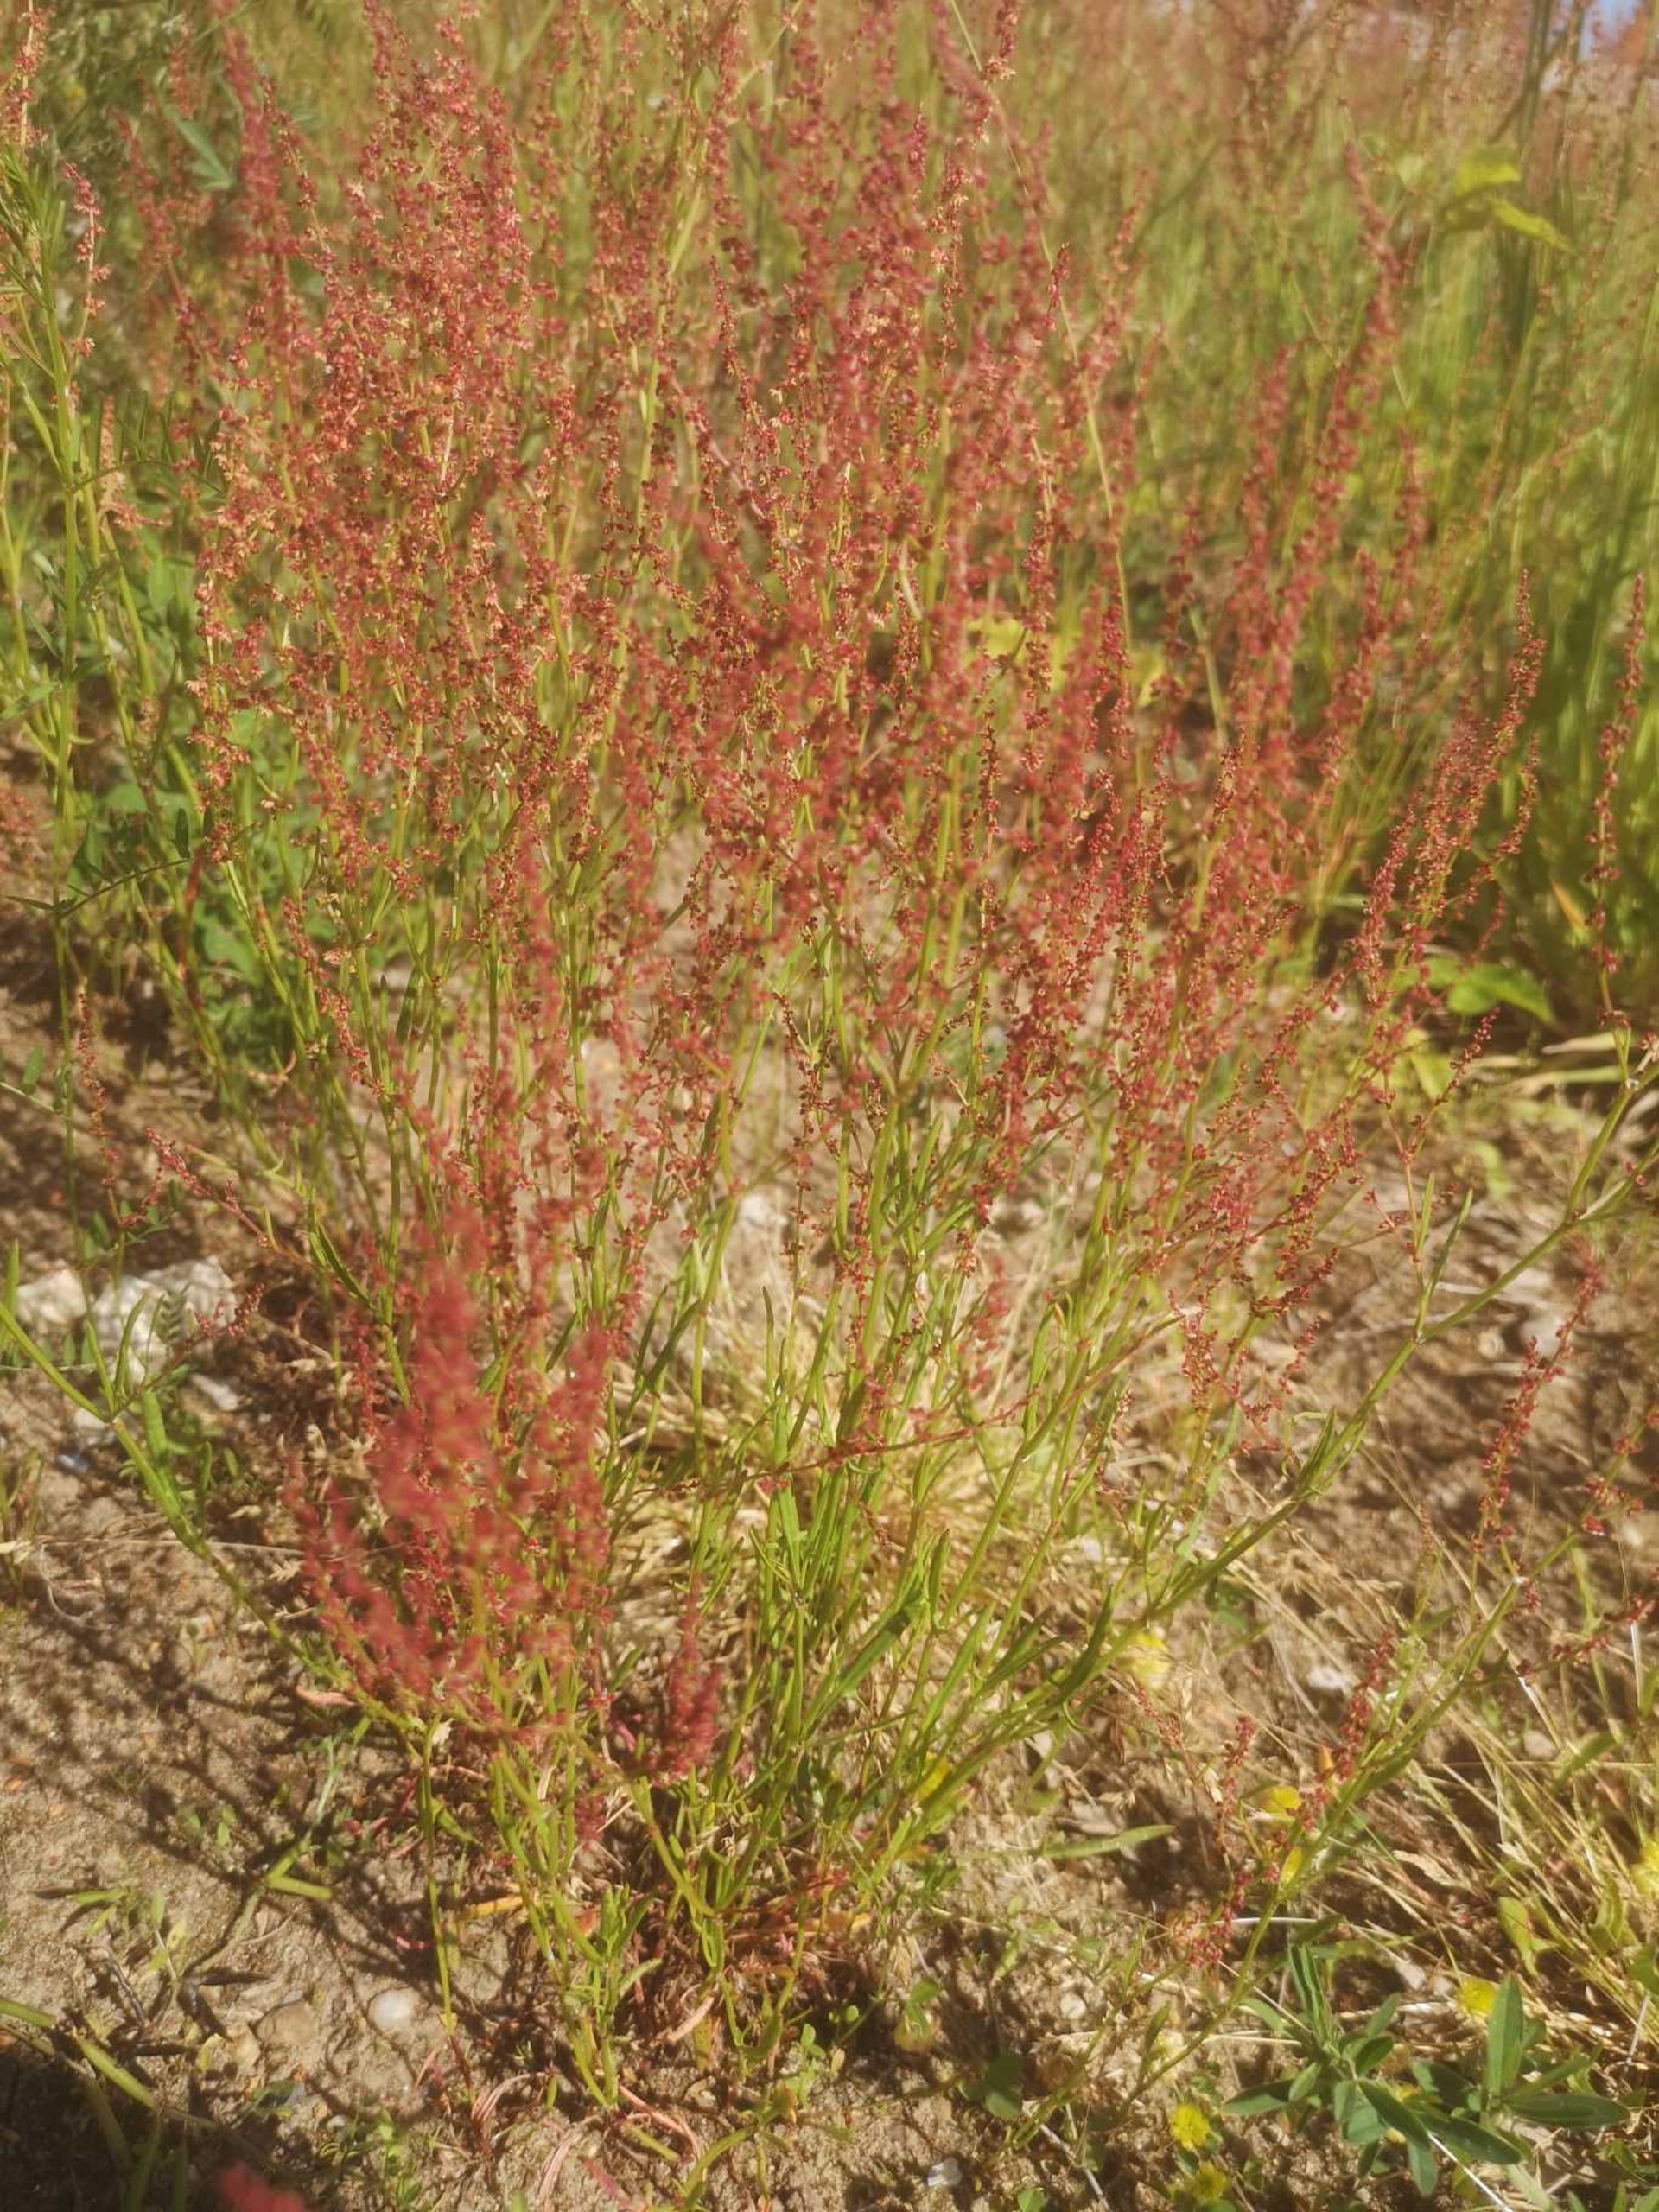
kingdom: Plantae
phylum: Tracheophyta
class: Magnoliopsida
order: Caryophyllales
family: Polygonaceae
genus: Rumex
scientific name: Rumex acetosella
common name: Rødknæ
